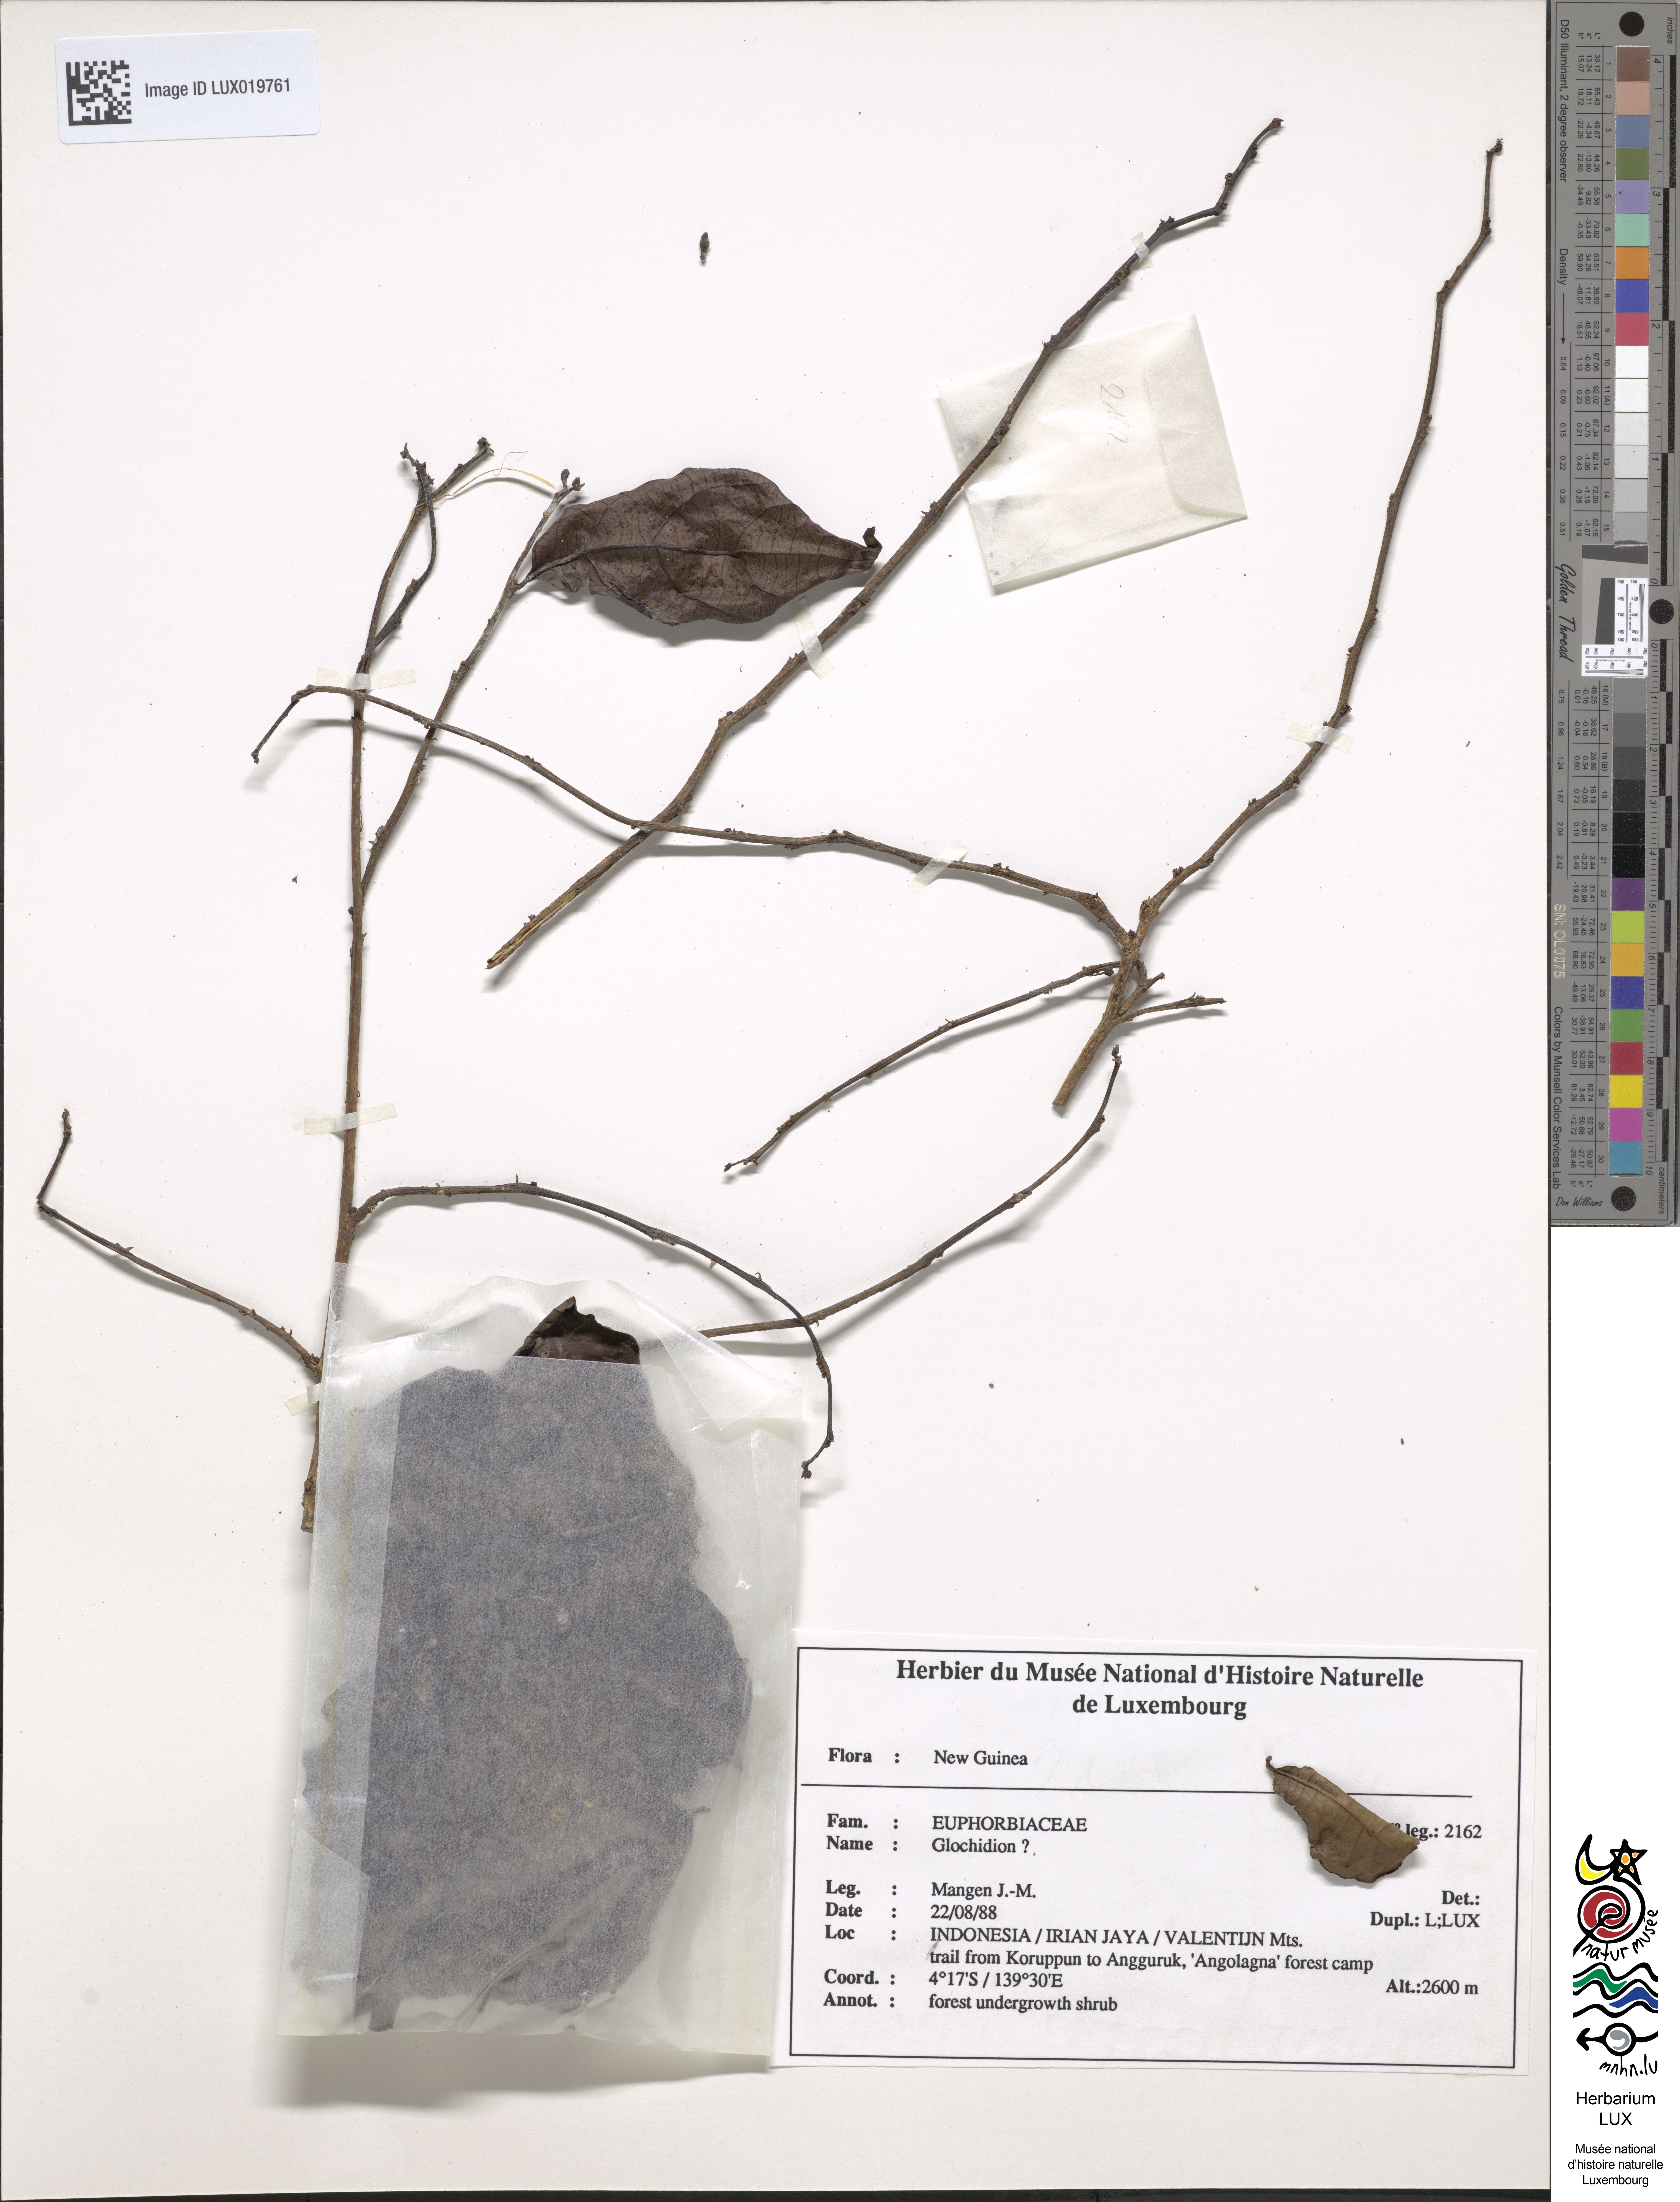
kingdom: Plantae
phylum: Tracheophyta
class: Magnoliopsida
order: Malpighiales
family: Phyllanthaceae
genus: Glochidion
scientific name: Glochidion
